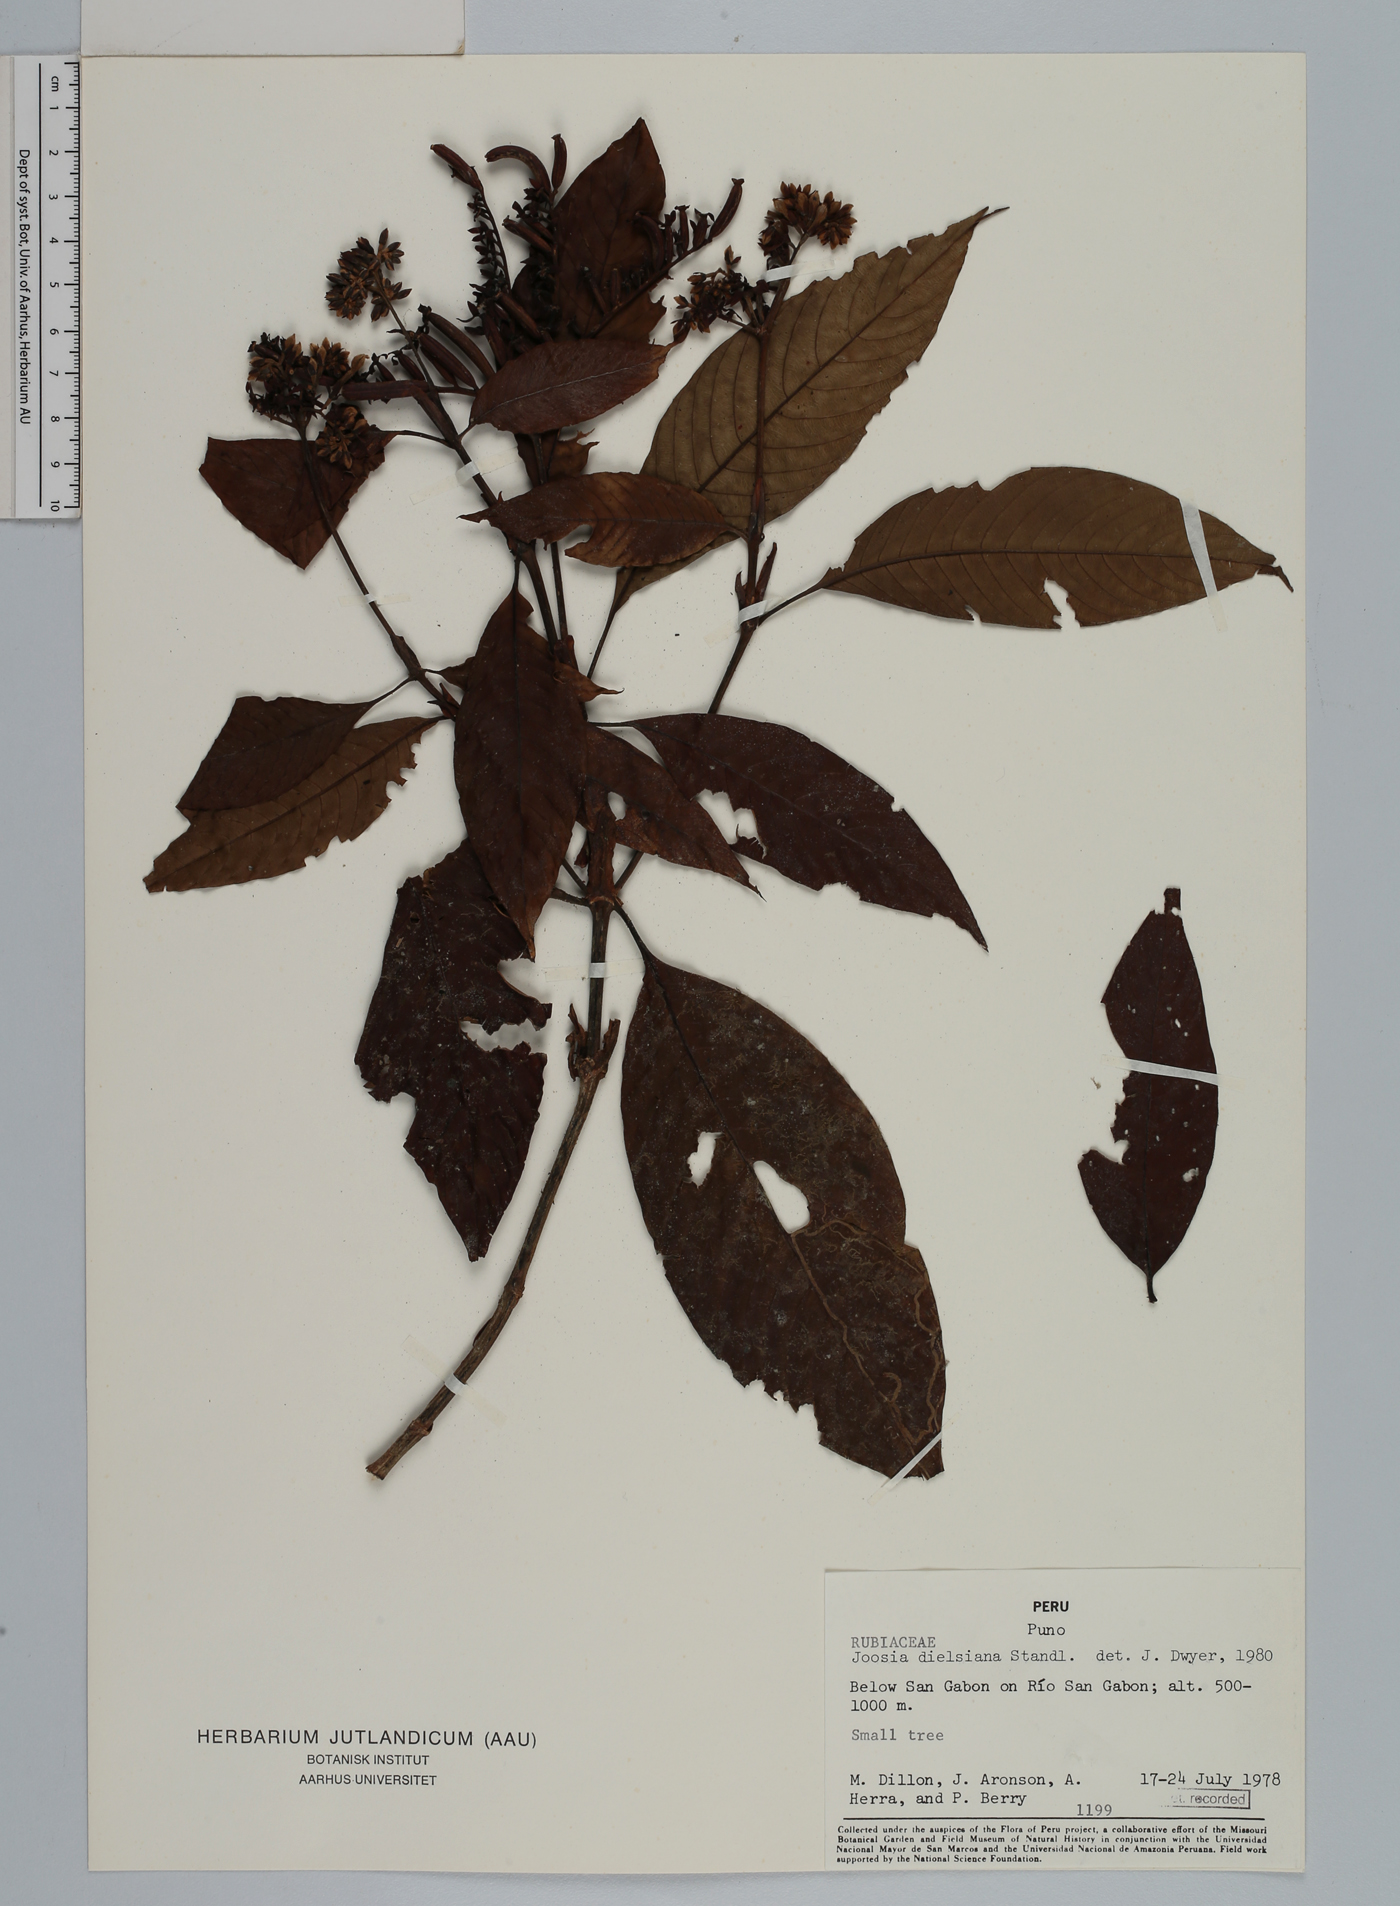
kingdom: Plantae
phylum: Tracheophyta
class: Magnoliopsida
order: Gentianales
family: Rubiaceae
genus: Joosia
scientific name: Joosia sericea
